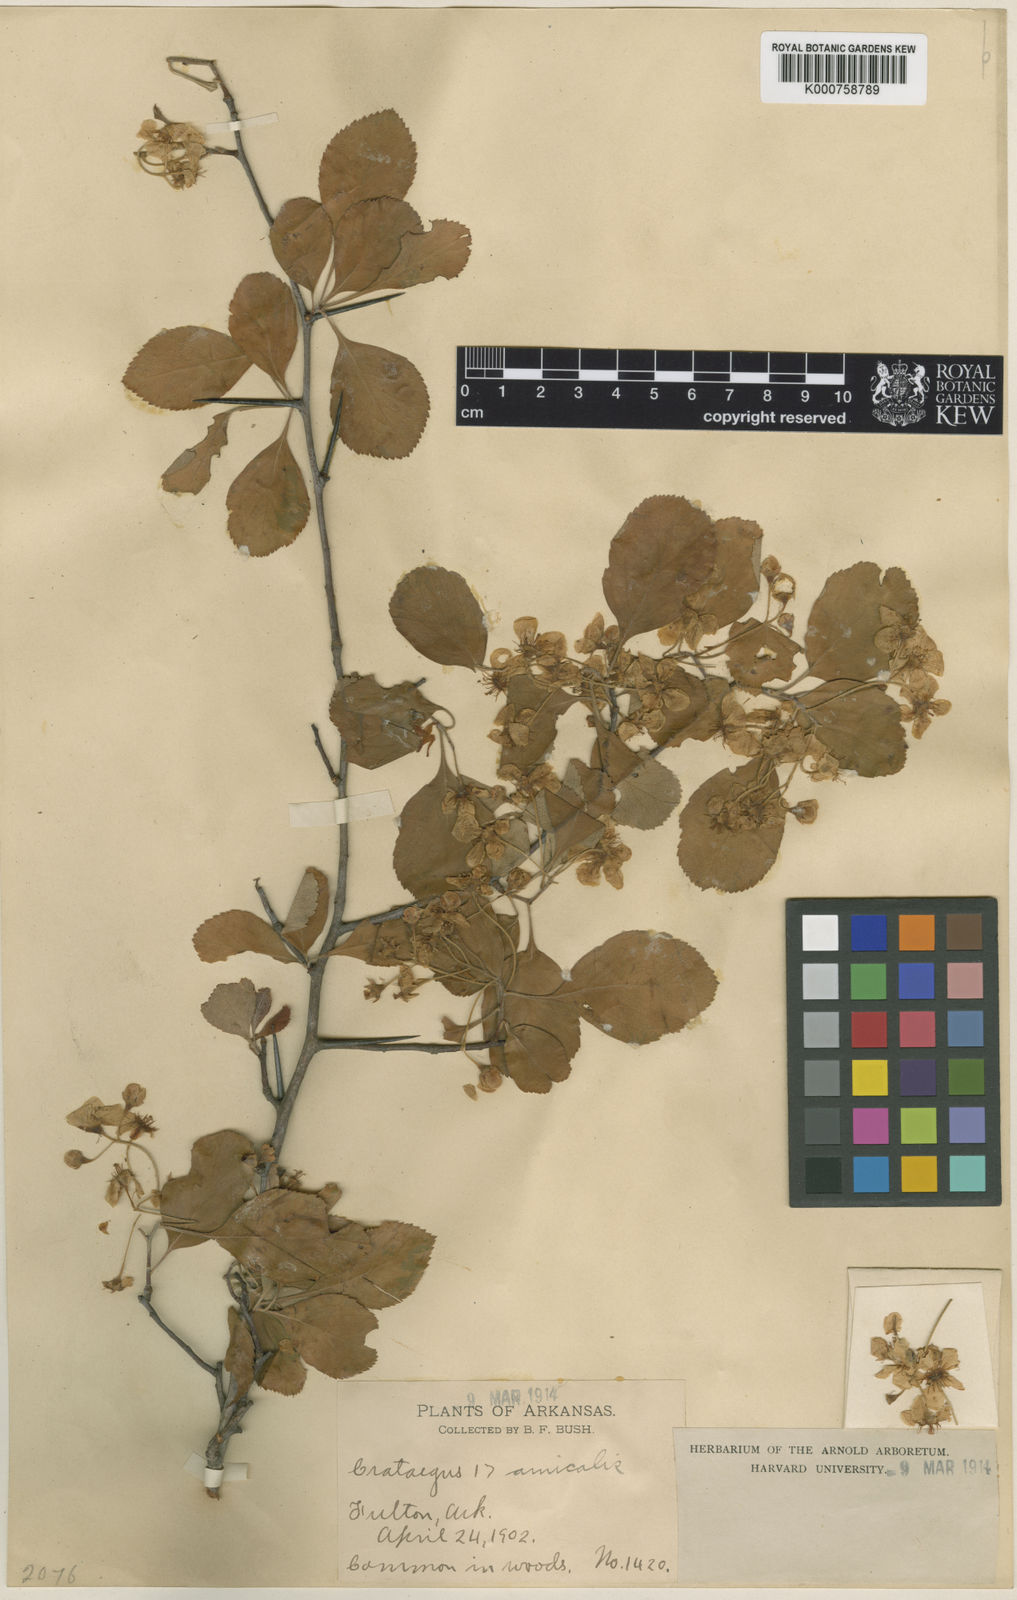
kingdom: Plantae
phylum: Tracheophyta
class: Magnoliopsida
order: Rosales
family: Rosaceae
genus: Crataegus
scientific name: Crataegus viridis
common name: Southernthorn
